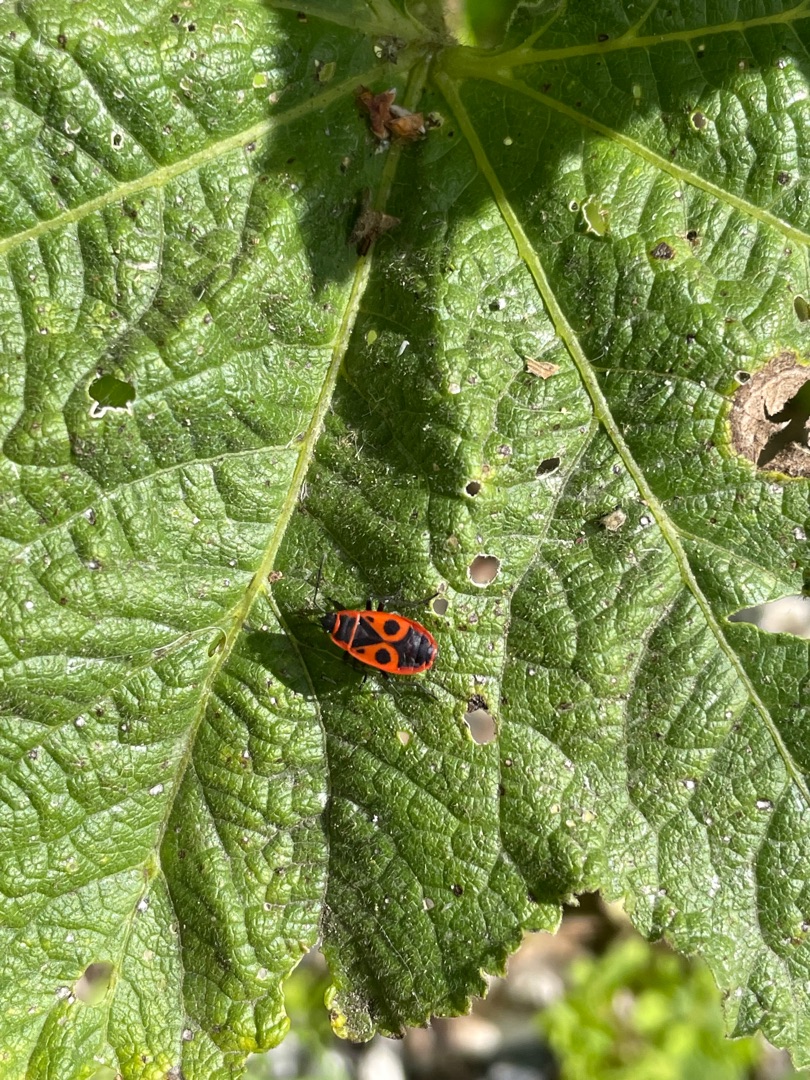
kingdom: Animalia
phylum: Arthropoda
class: Insecta
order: Hemiptera
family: Pyrrhocoridae
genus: Pyrrhocoris
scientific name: Pyrrhocoris apterus
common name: Ildtæge
